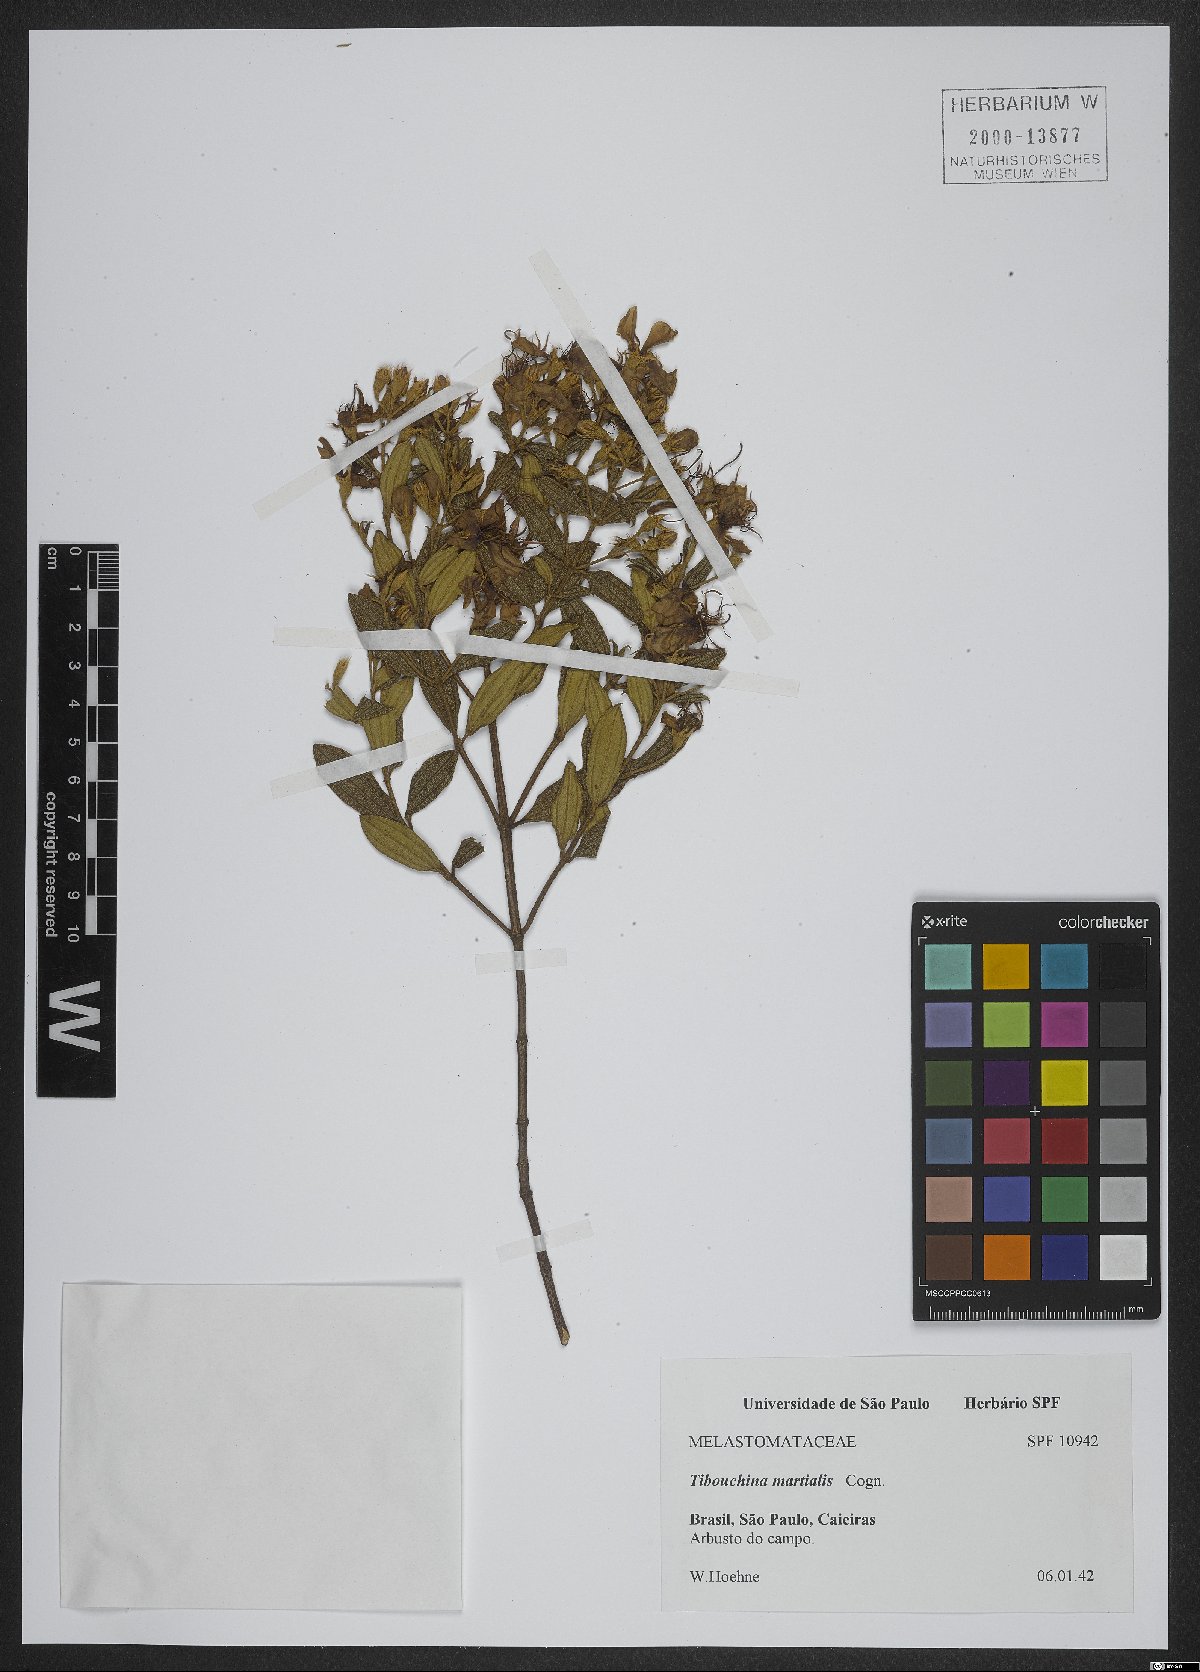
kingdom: Plantae
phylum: Tracheophyta
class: Magnoliopsida
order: Myrtales
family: Melastomataceae
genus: Pleroma
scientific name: Pleroma martiale
